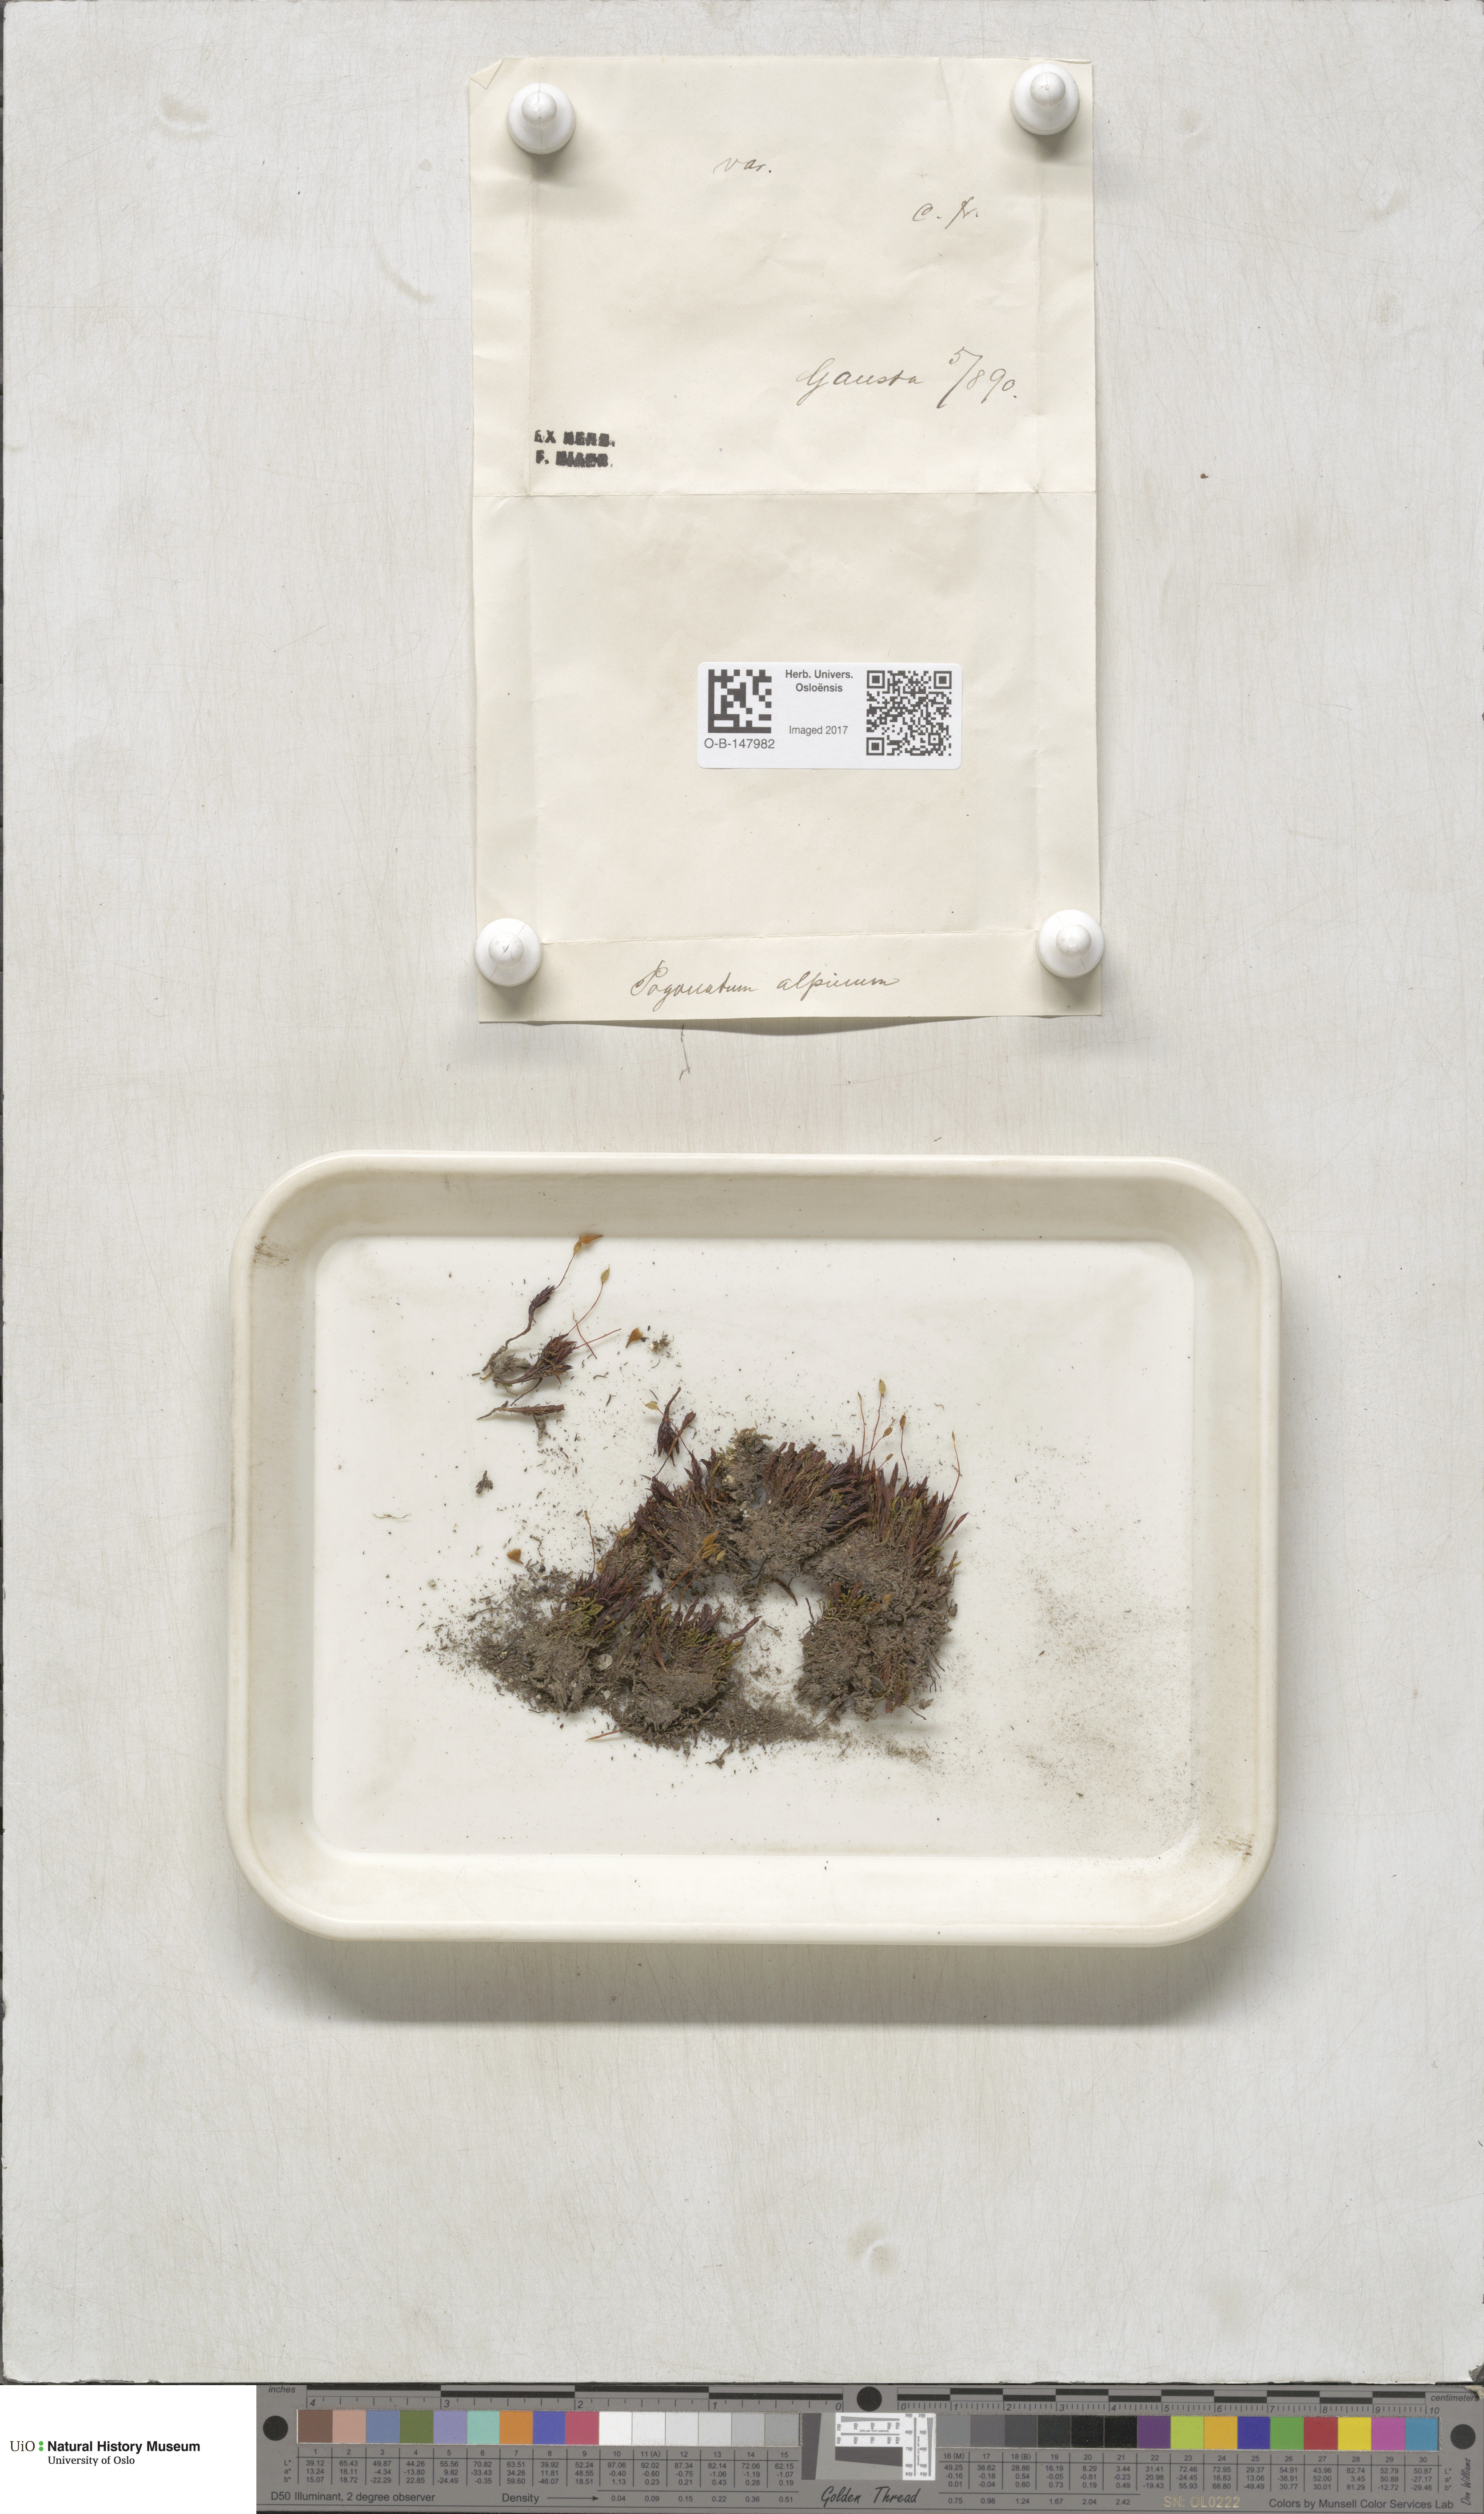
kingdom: Plantae
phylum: Bryophyta
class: Polytrichopsida
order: Polytrichales
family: Polytrichaceae
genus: Polytrichastrum
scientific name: Polytrichastrum alpinum
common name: Alpine haircap
